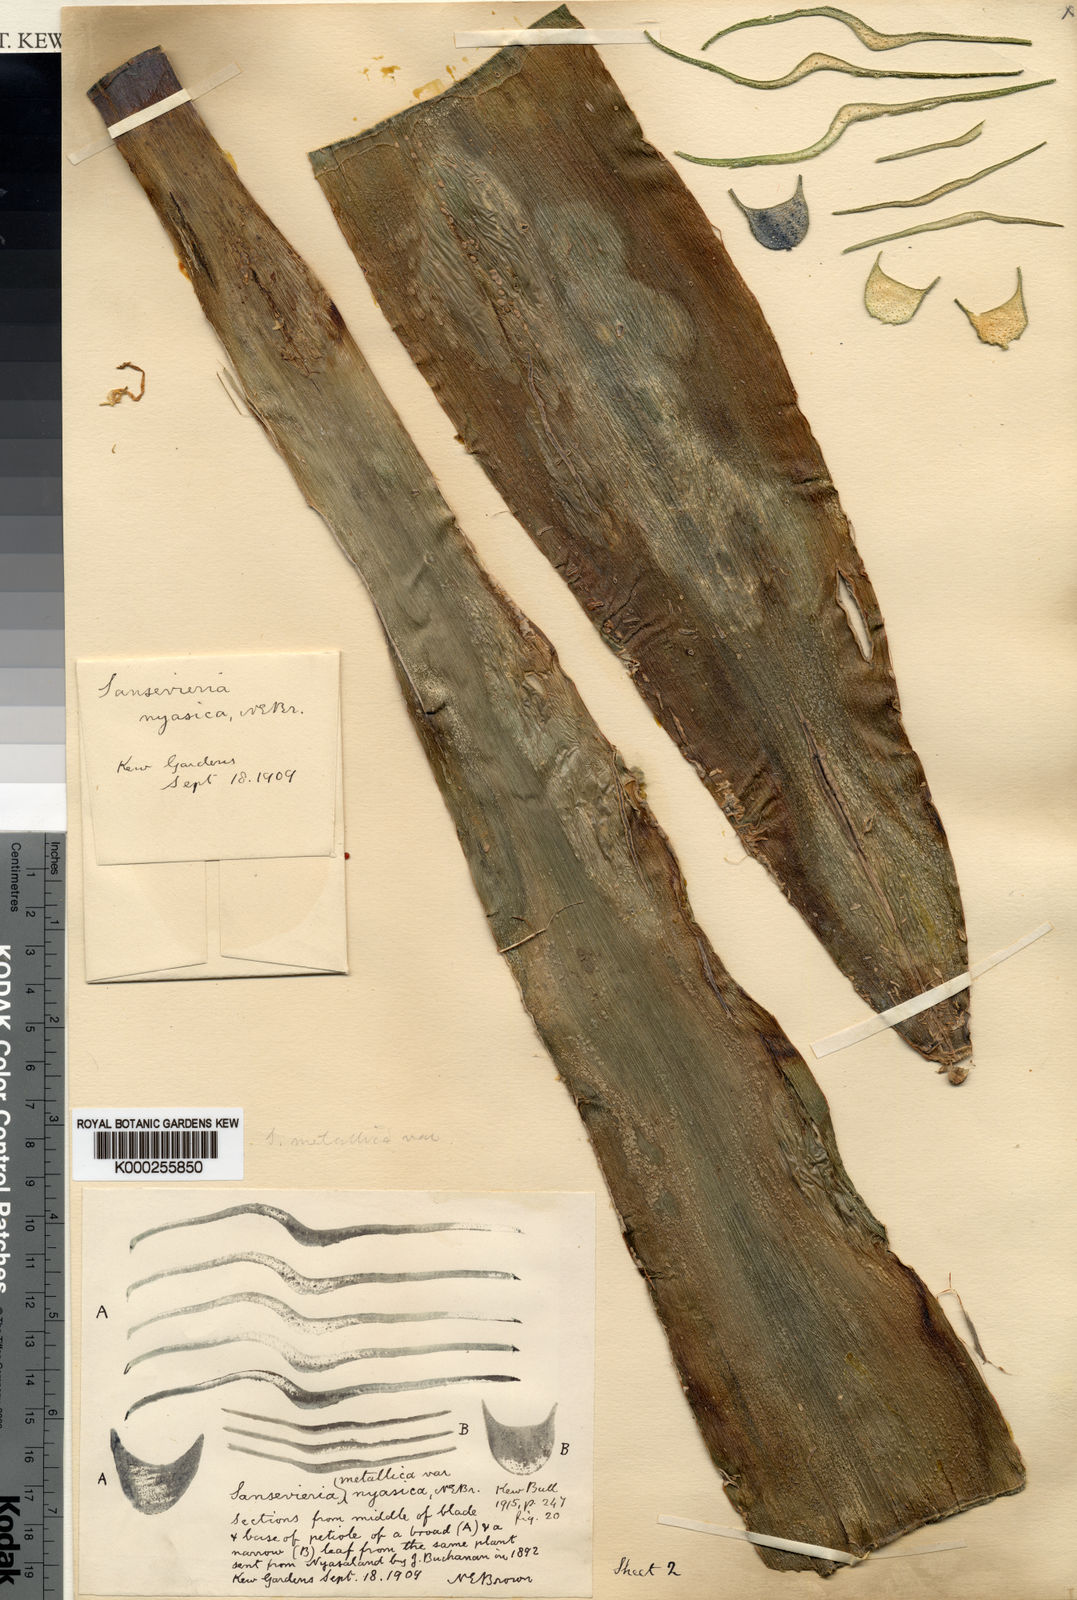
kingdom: Plantae
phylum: Tracheophyta
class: Liliopsida
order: Asparagales
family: Asparagaceae
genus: Dracaena
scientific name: Dracaena zebra
